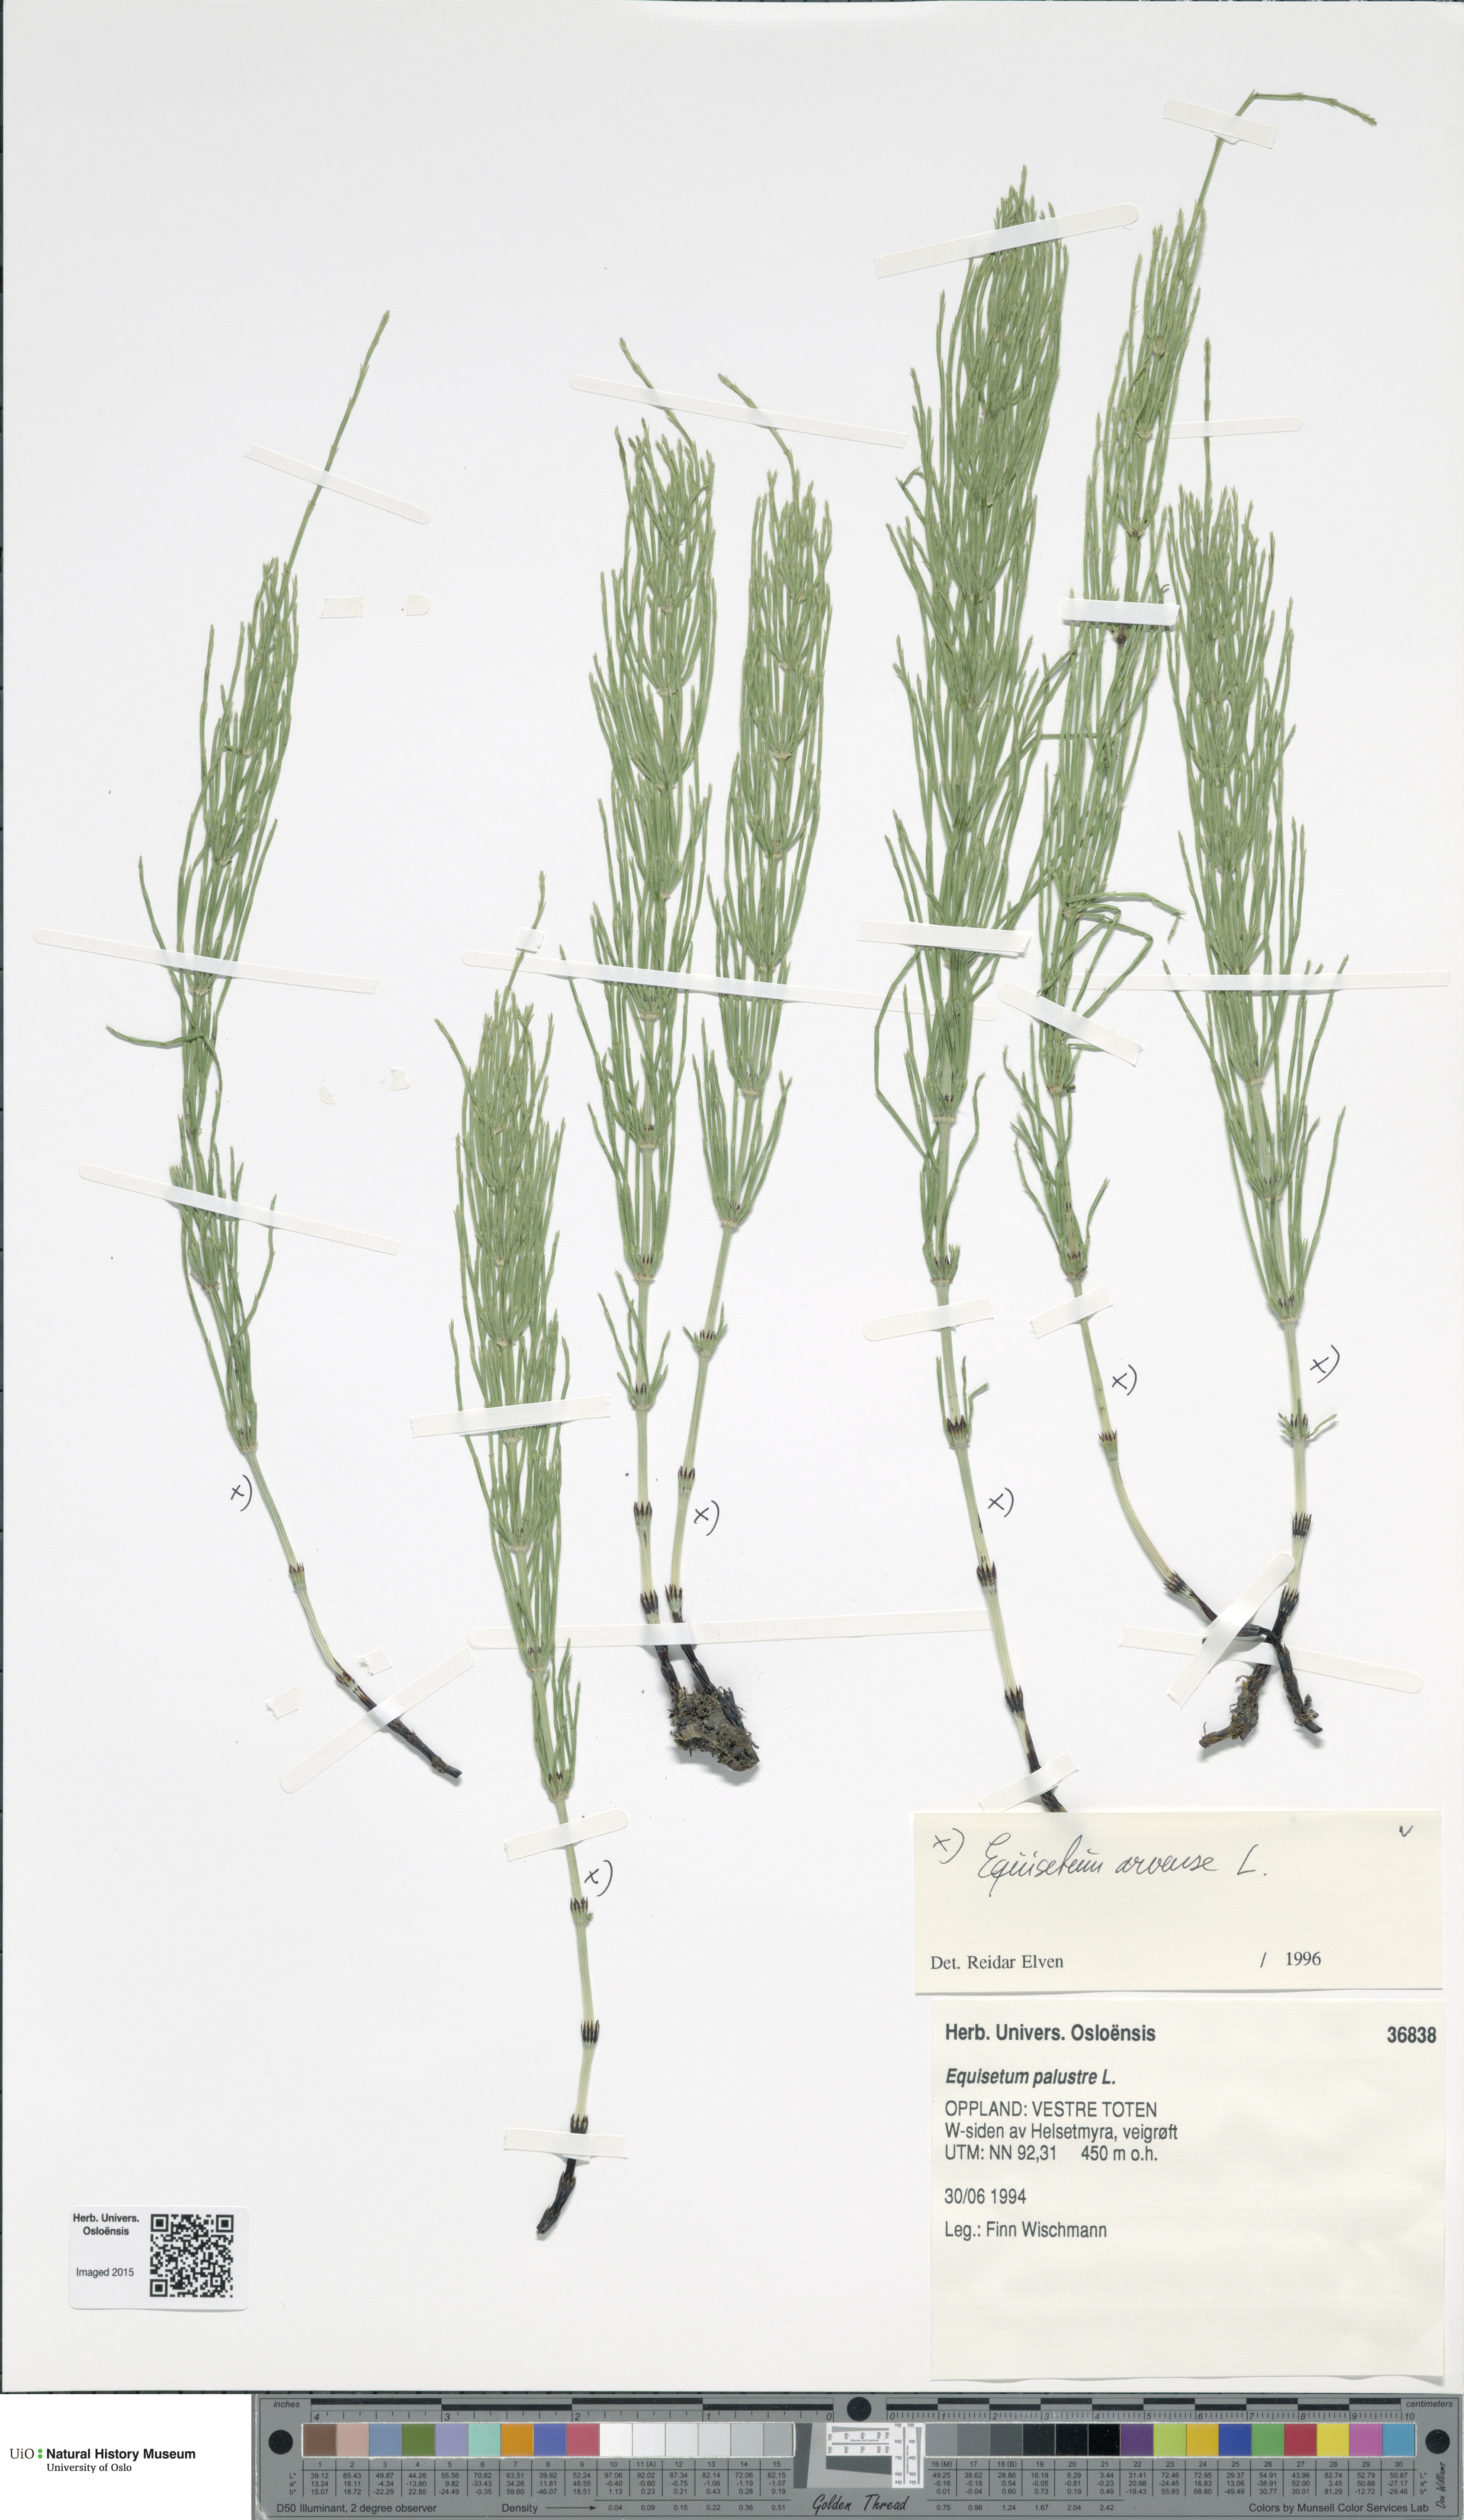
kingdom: Plantae
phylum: Tracheophyta
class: Polypodiopsida
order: Equisetales
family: Equisetaceae
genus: Equisetum
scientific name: Equisetum arvense
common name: Field horsetail
